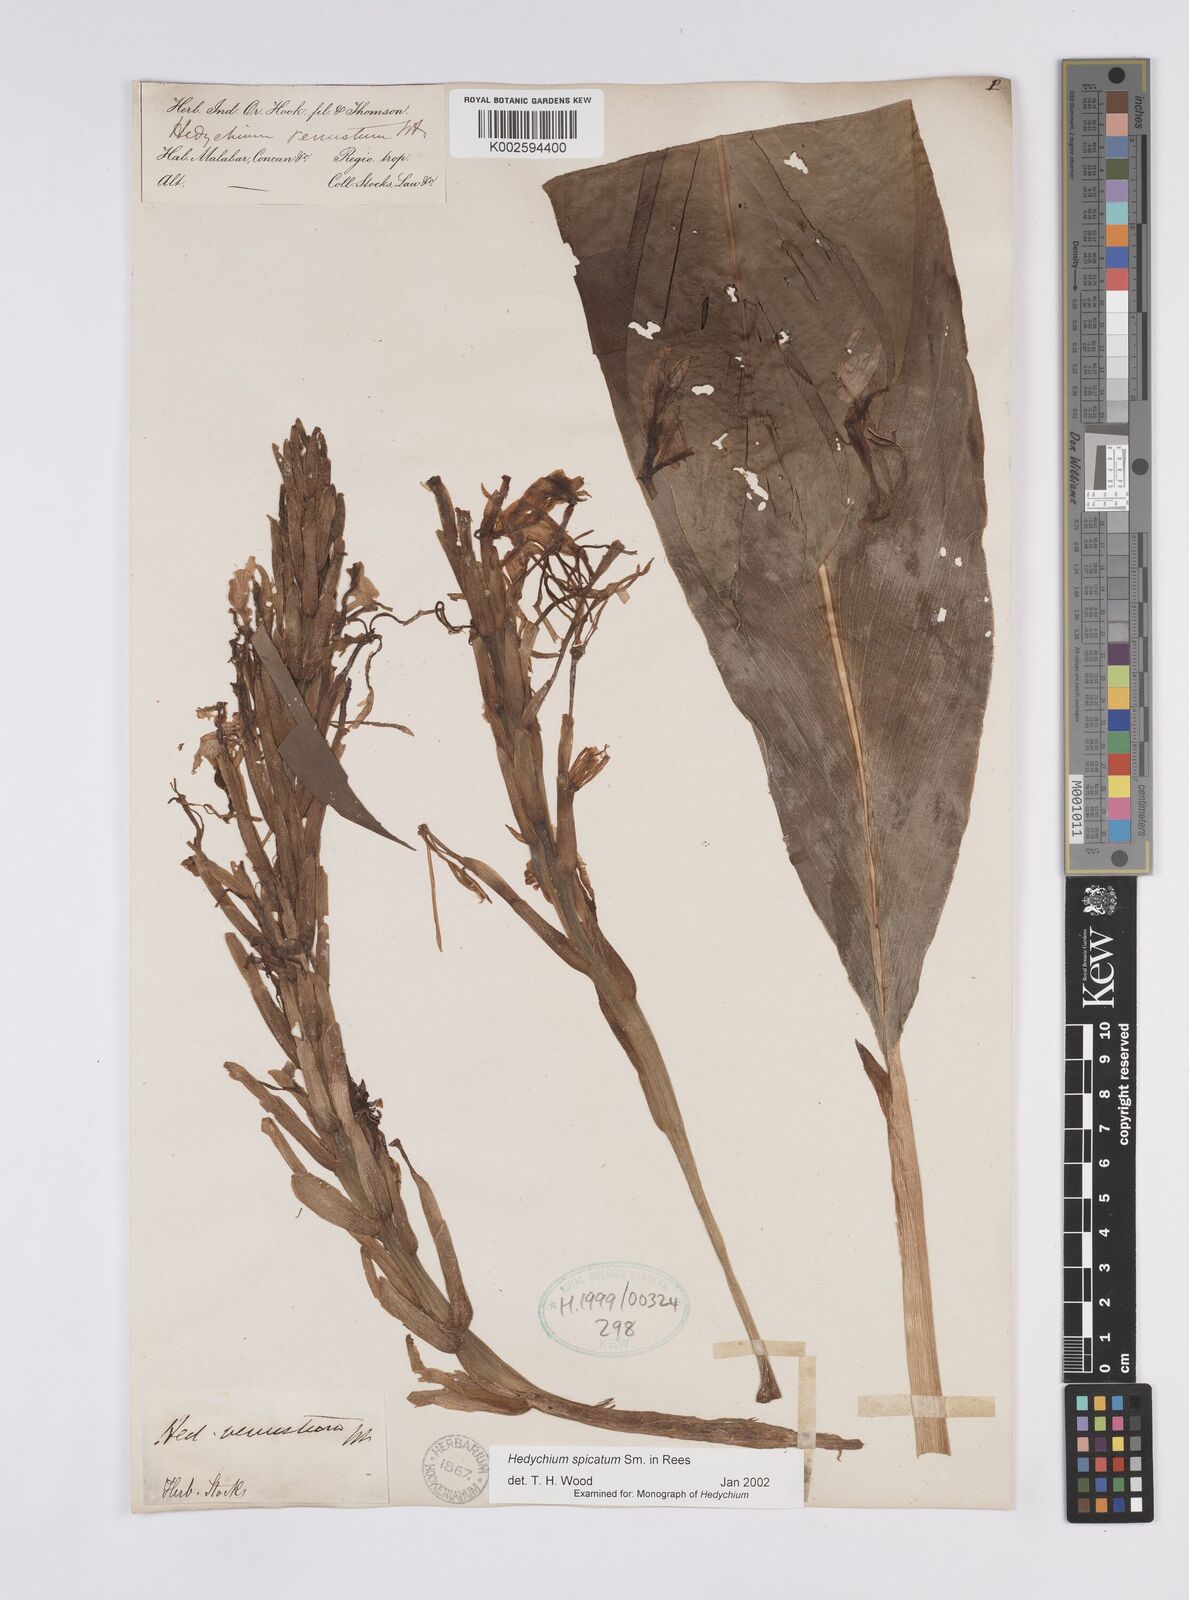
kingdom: Plantae
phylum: Tracheophyta
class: Liliopsida
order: Zingiberales
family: Zingiberaceae
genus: Hedychium
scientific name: Hedychium spicatum
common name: Spiked ginger-lily
